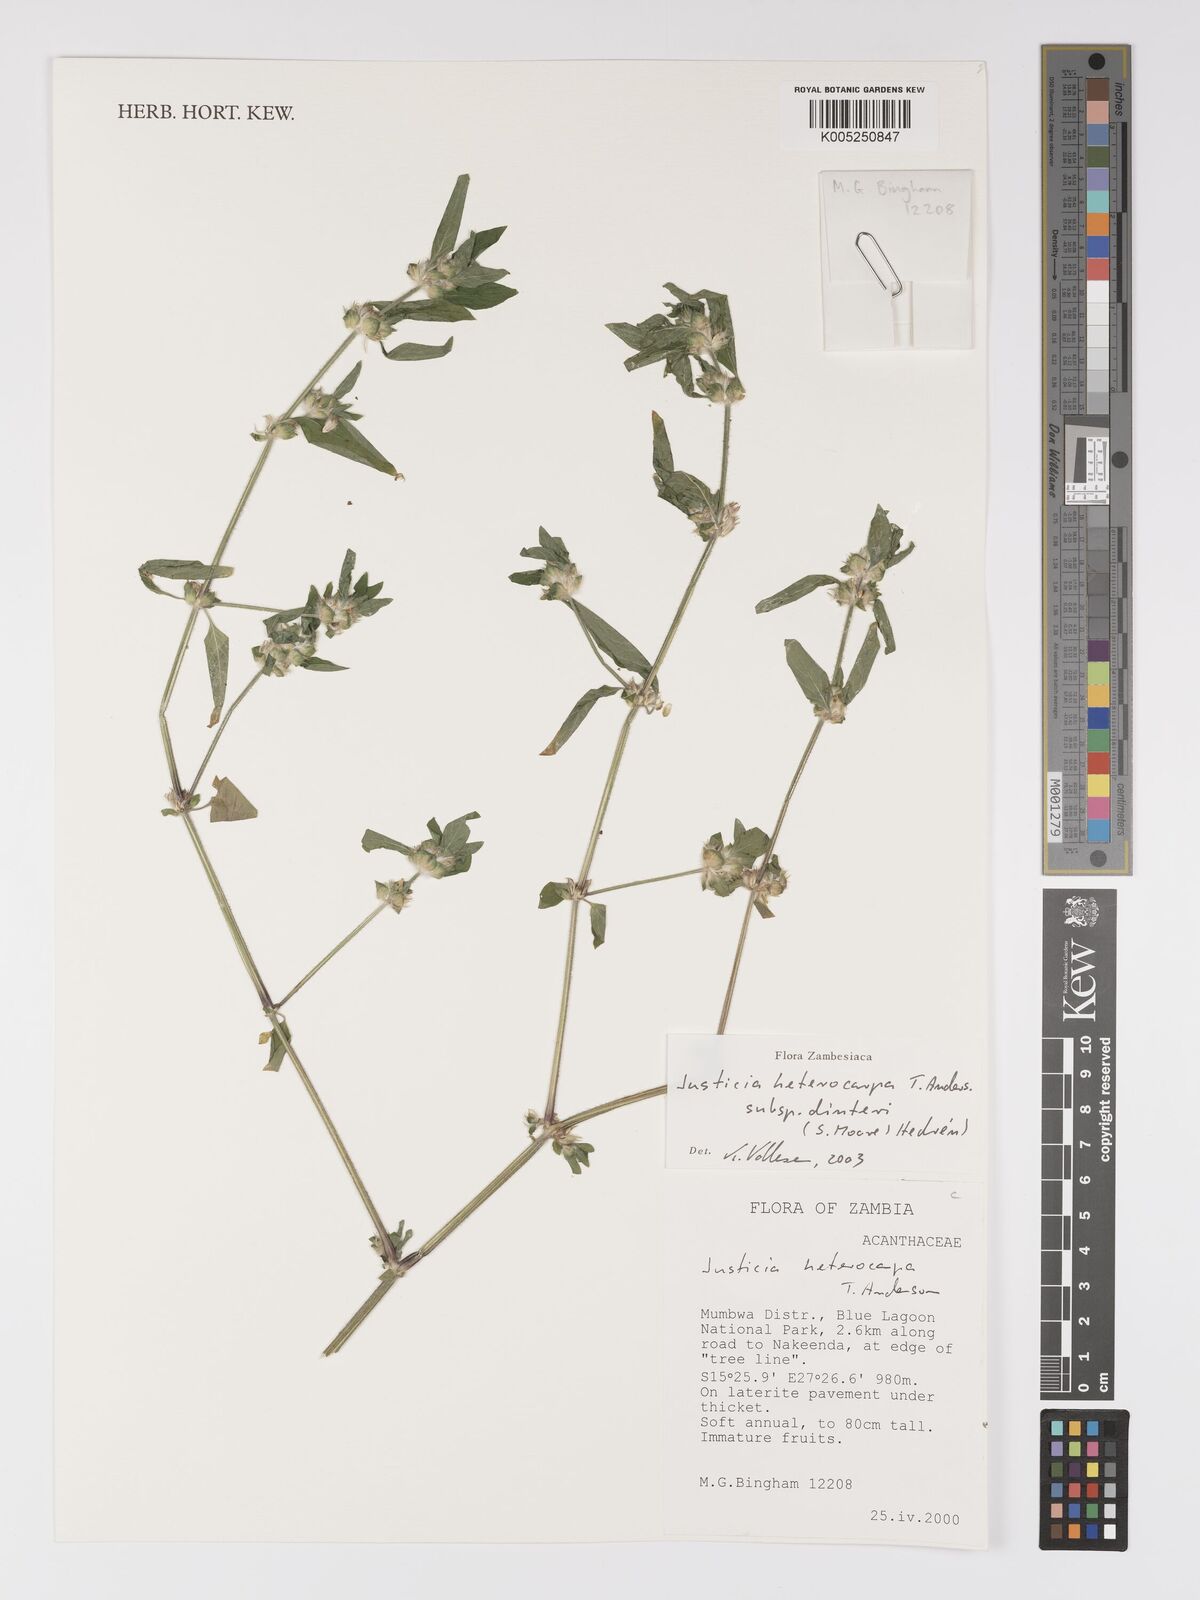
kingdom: Plantae
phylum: Tracheophyta
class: Magnoliopsida
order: Lamiales
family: Acanthaceae
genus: Justicia
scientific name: Justicia heterocarpa
